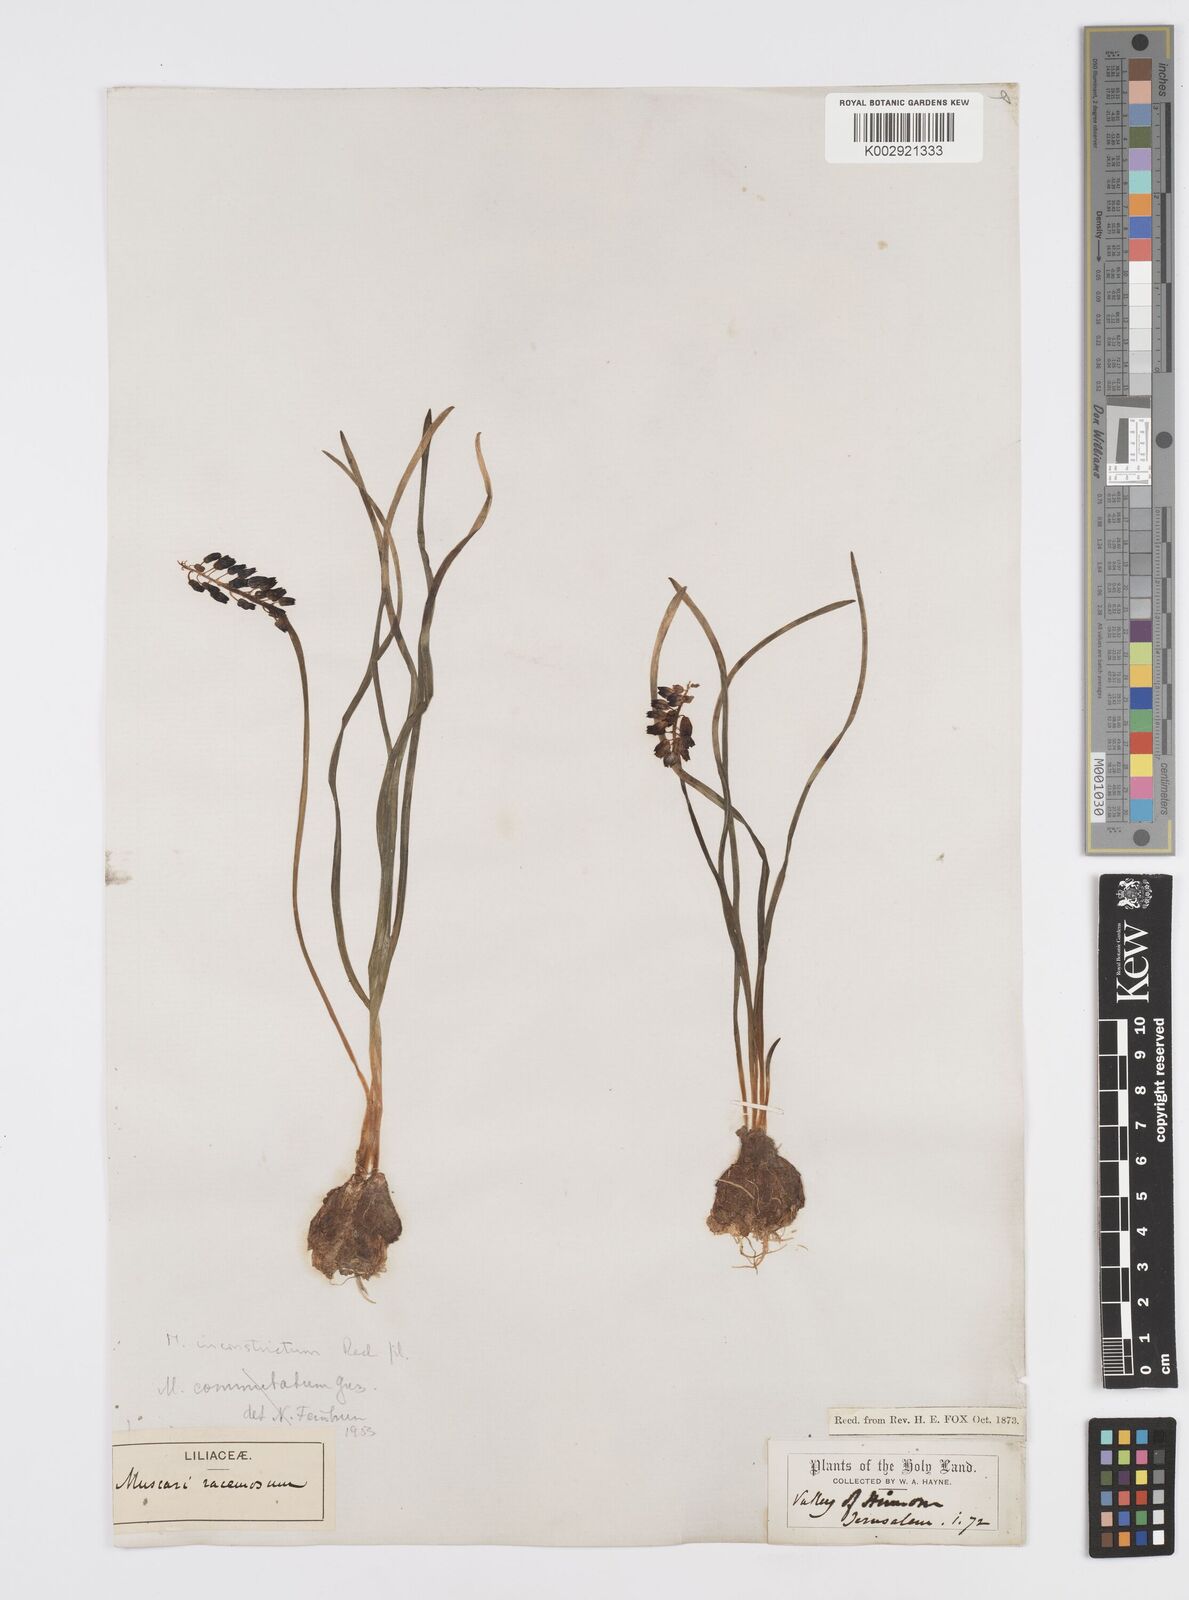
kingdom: Plantae
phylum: Tracheophyta
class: Liliopsida
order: Asparagales
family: Asparagaceae
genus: Muscari
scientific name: Muscari inconstrictum
